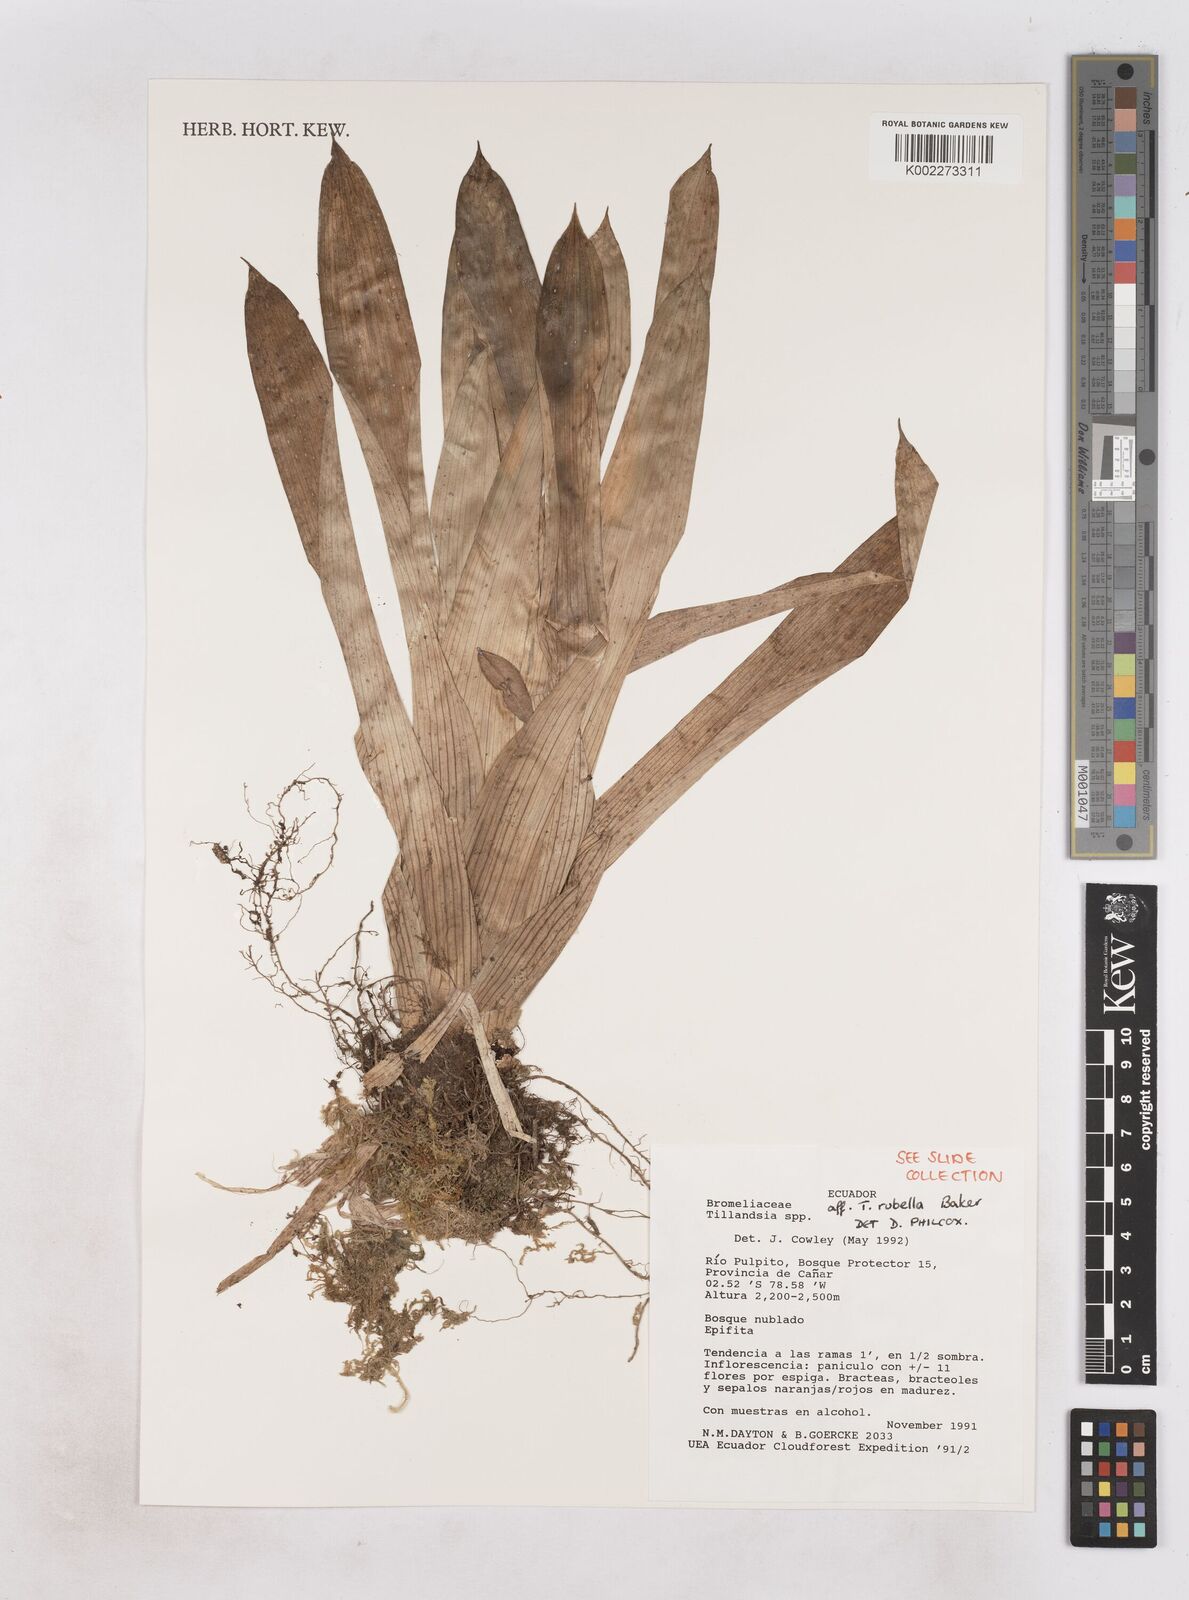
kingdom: Plantae
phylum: Tracheophyta
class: Liliopsida
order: Poales
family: Bromeliaceae
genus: Tillandsia
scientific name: Tillandsia rubella
